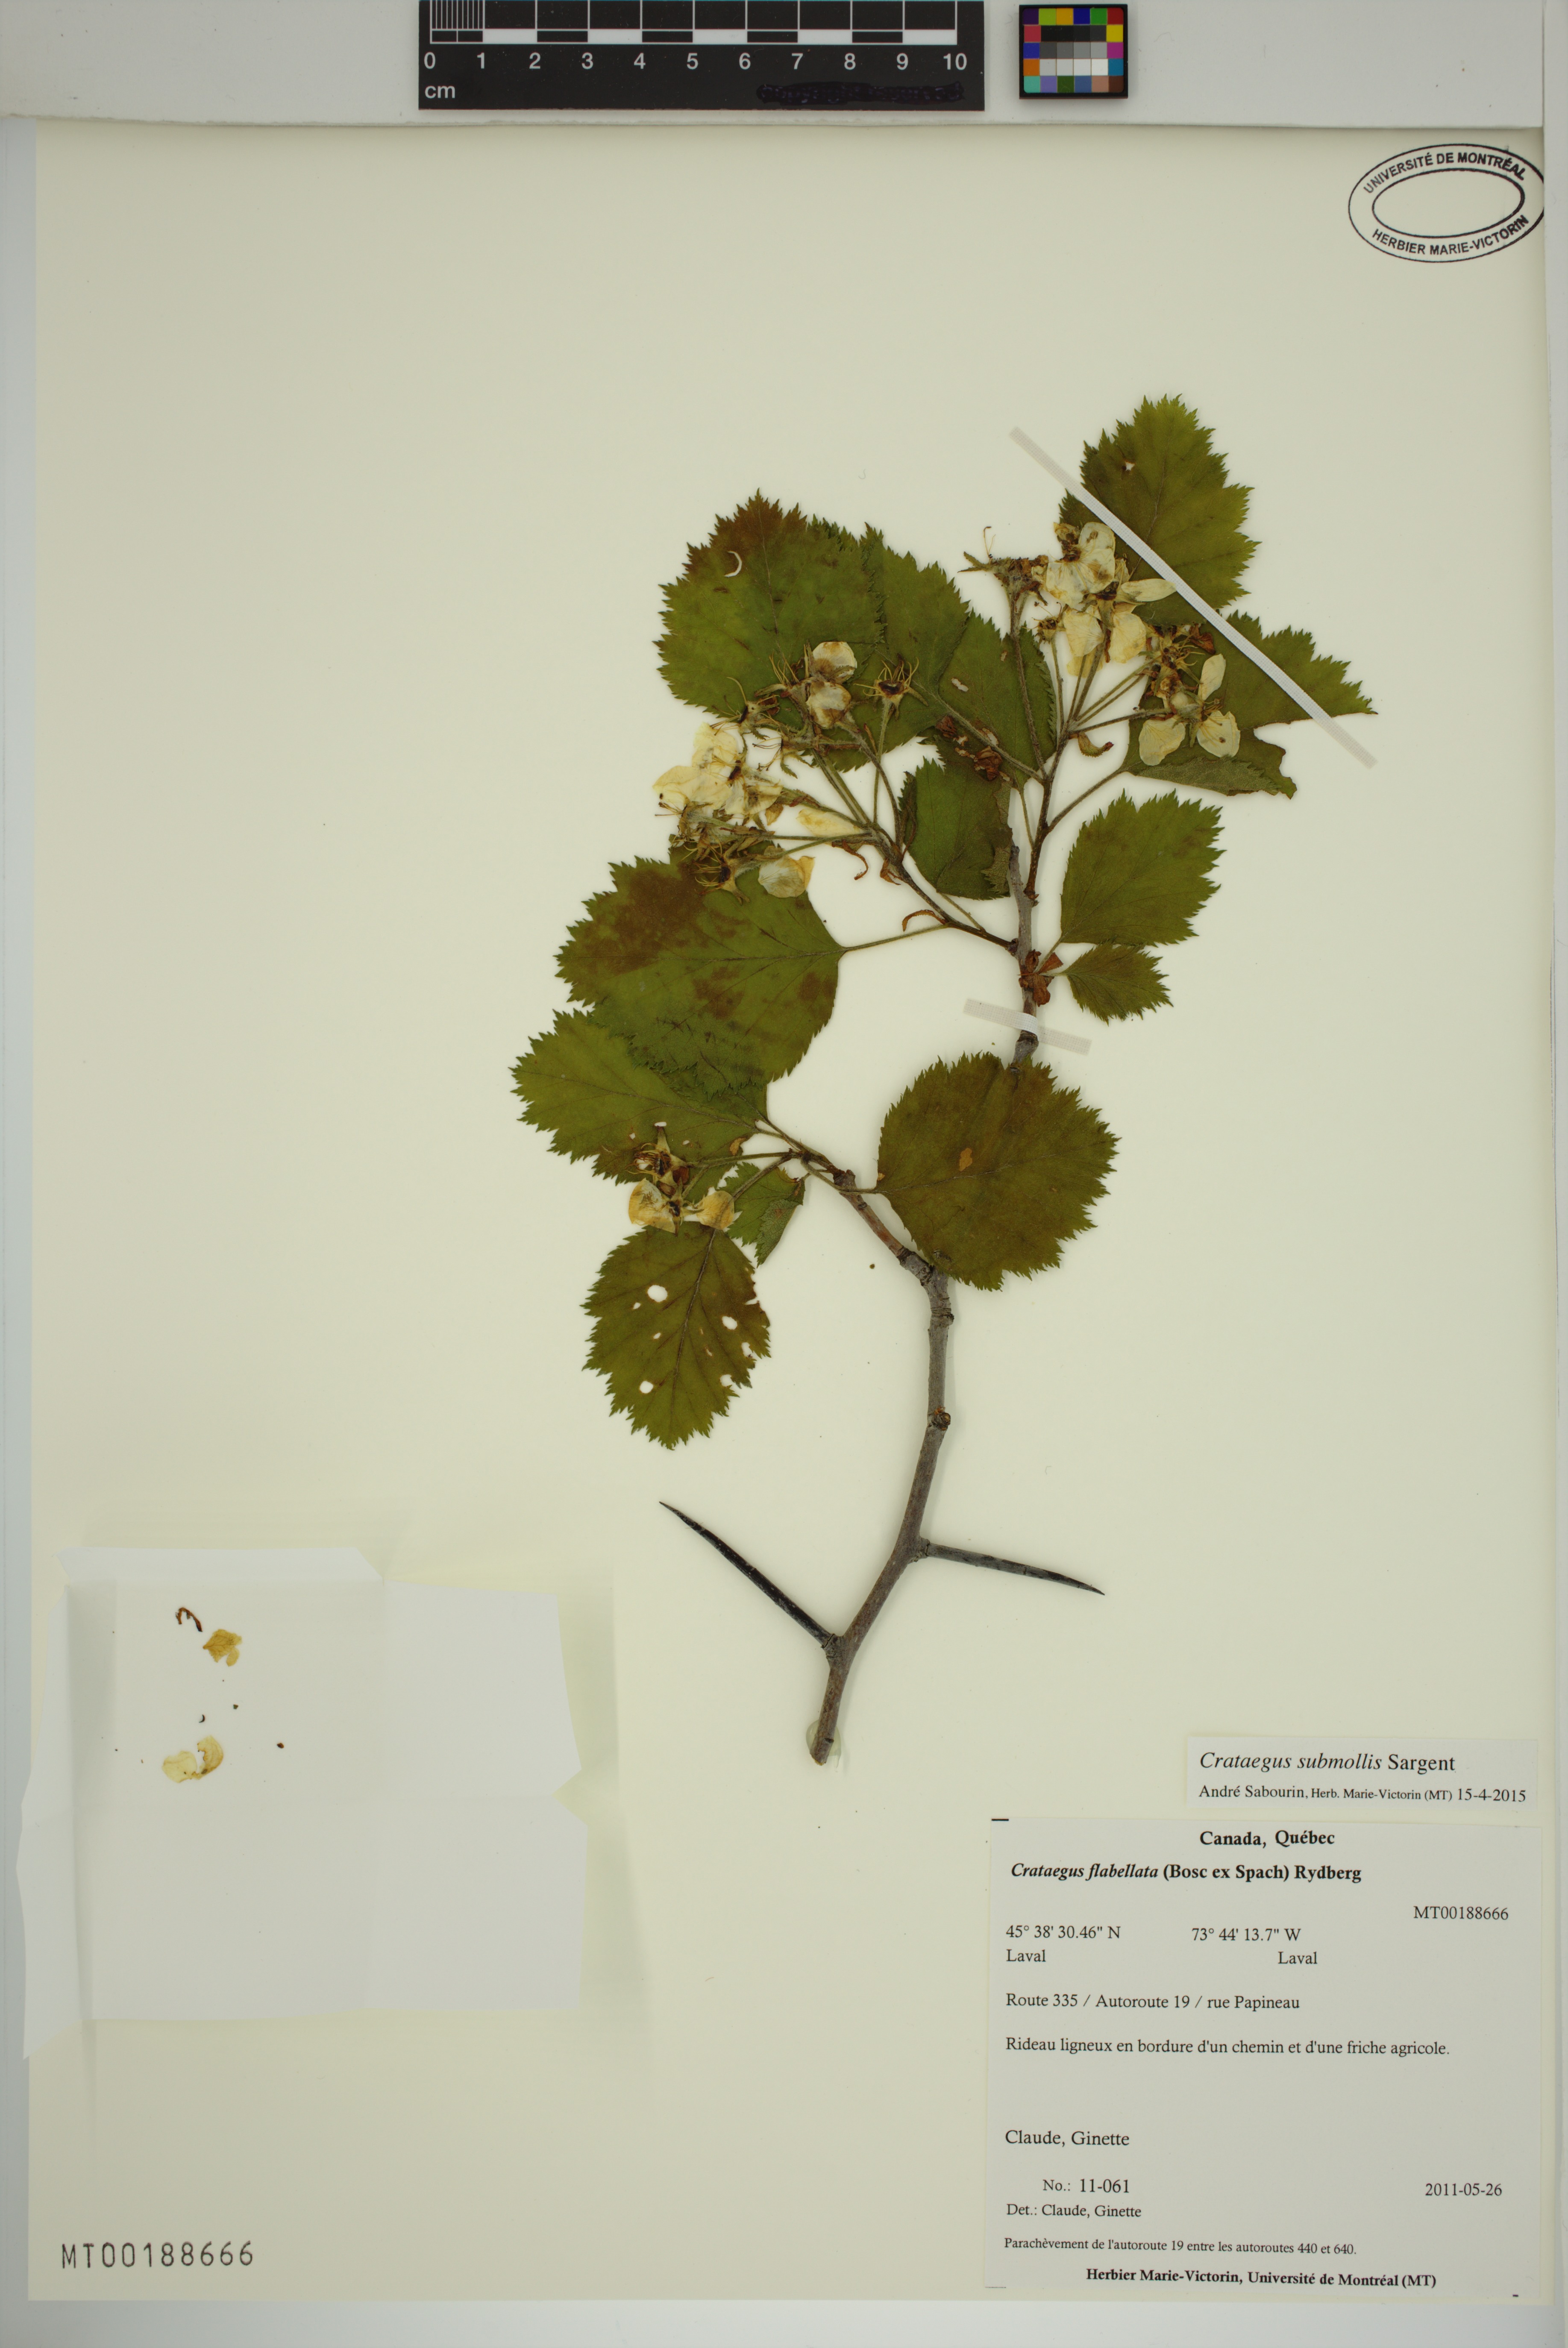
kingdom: Plantae
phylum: Tracheophyta
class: Magnoliopsida
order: Rosales
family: Rosaceae
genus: Crataegus
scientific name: Crataegus submollis
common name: Hairy cockspurthorn
